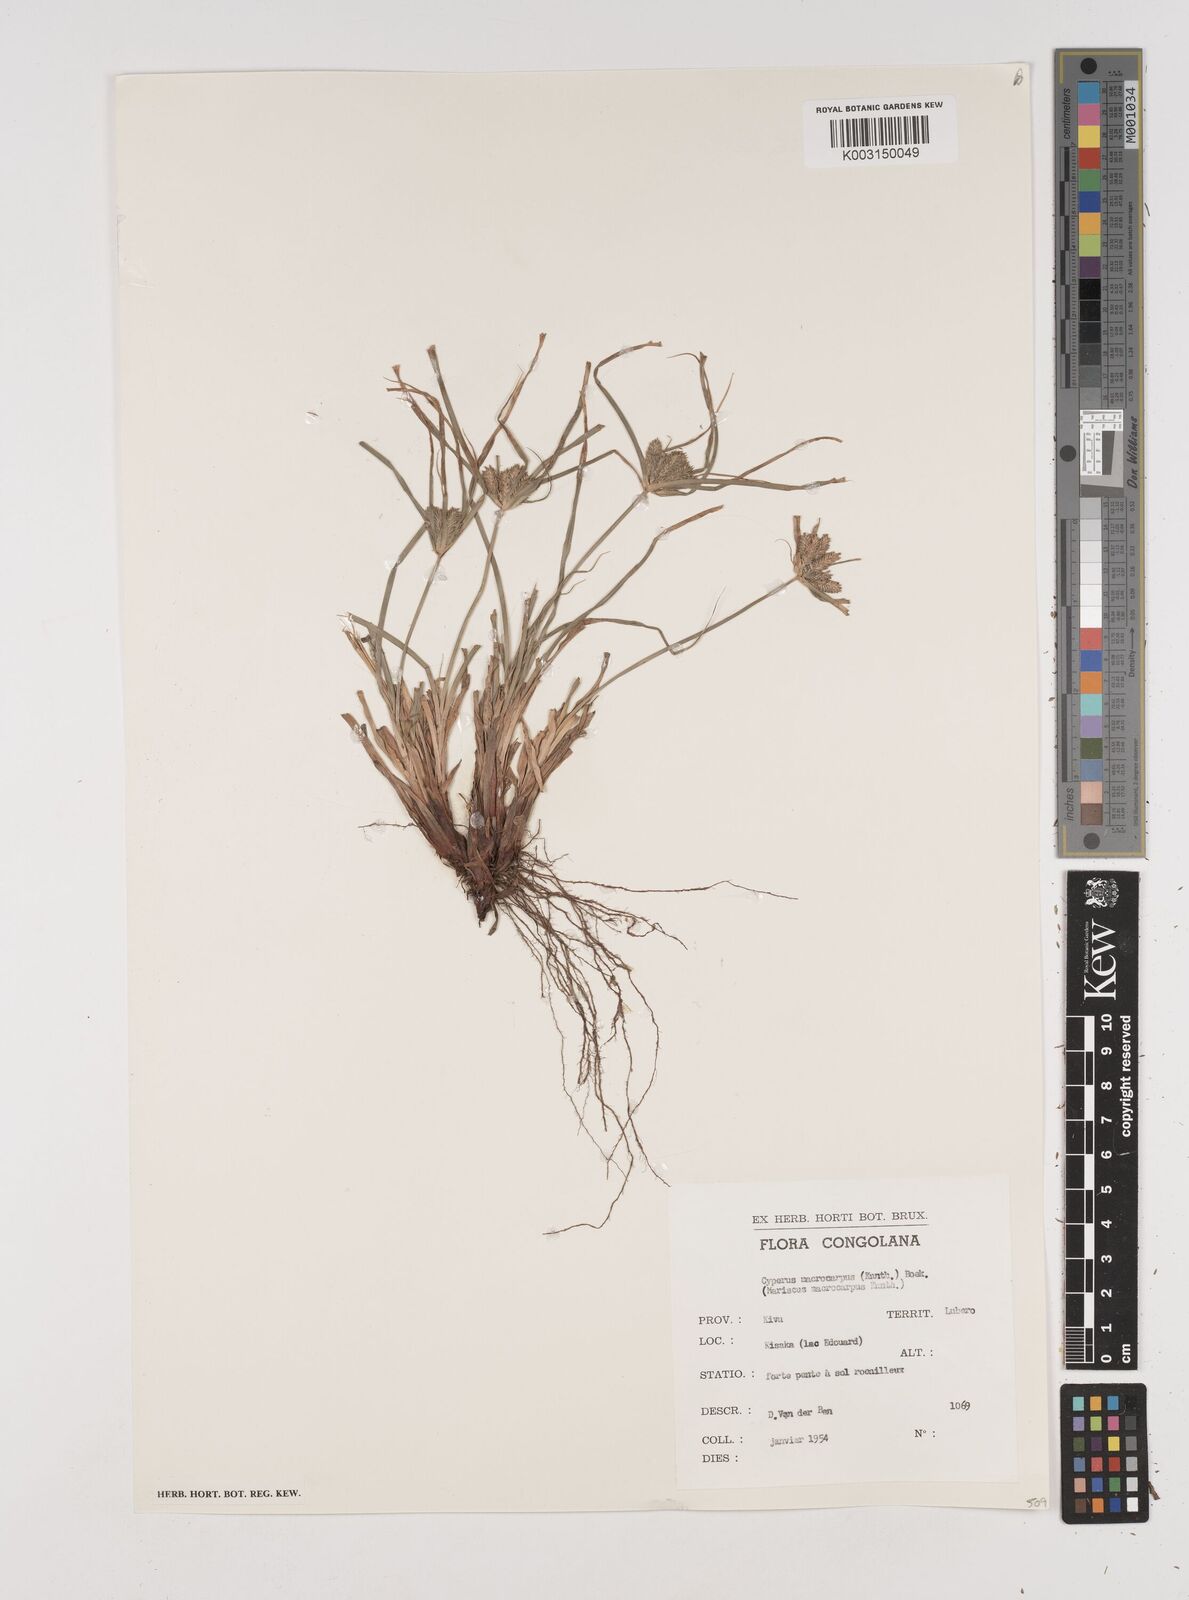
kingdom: Plantae
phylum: Tracheophyta
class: Liliopsida
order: Poales
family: Cyperaceae
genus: Cyperus
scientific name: Cyperus macrocarpus
